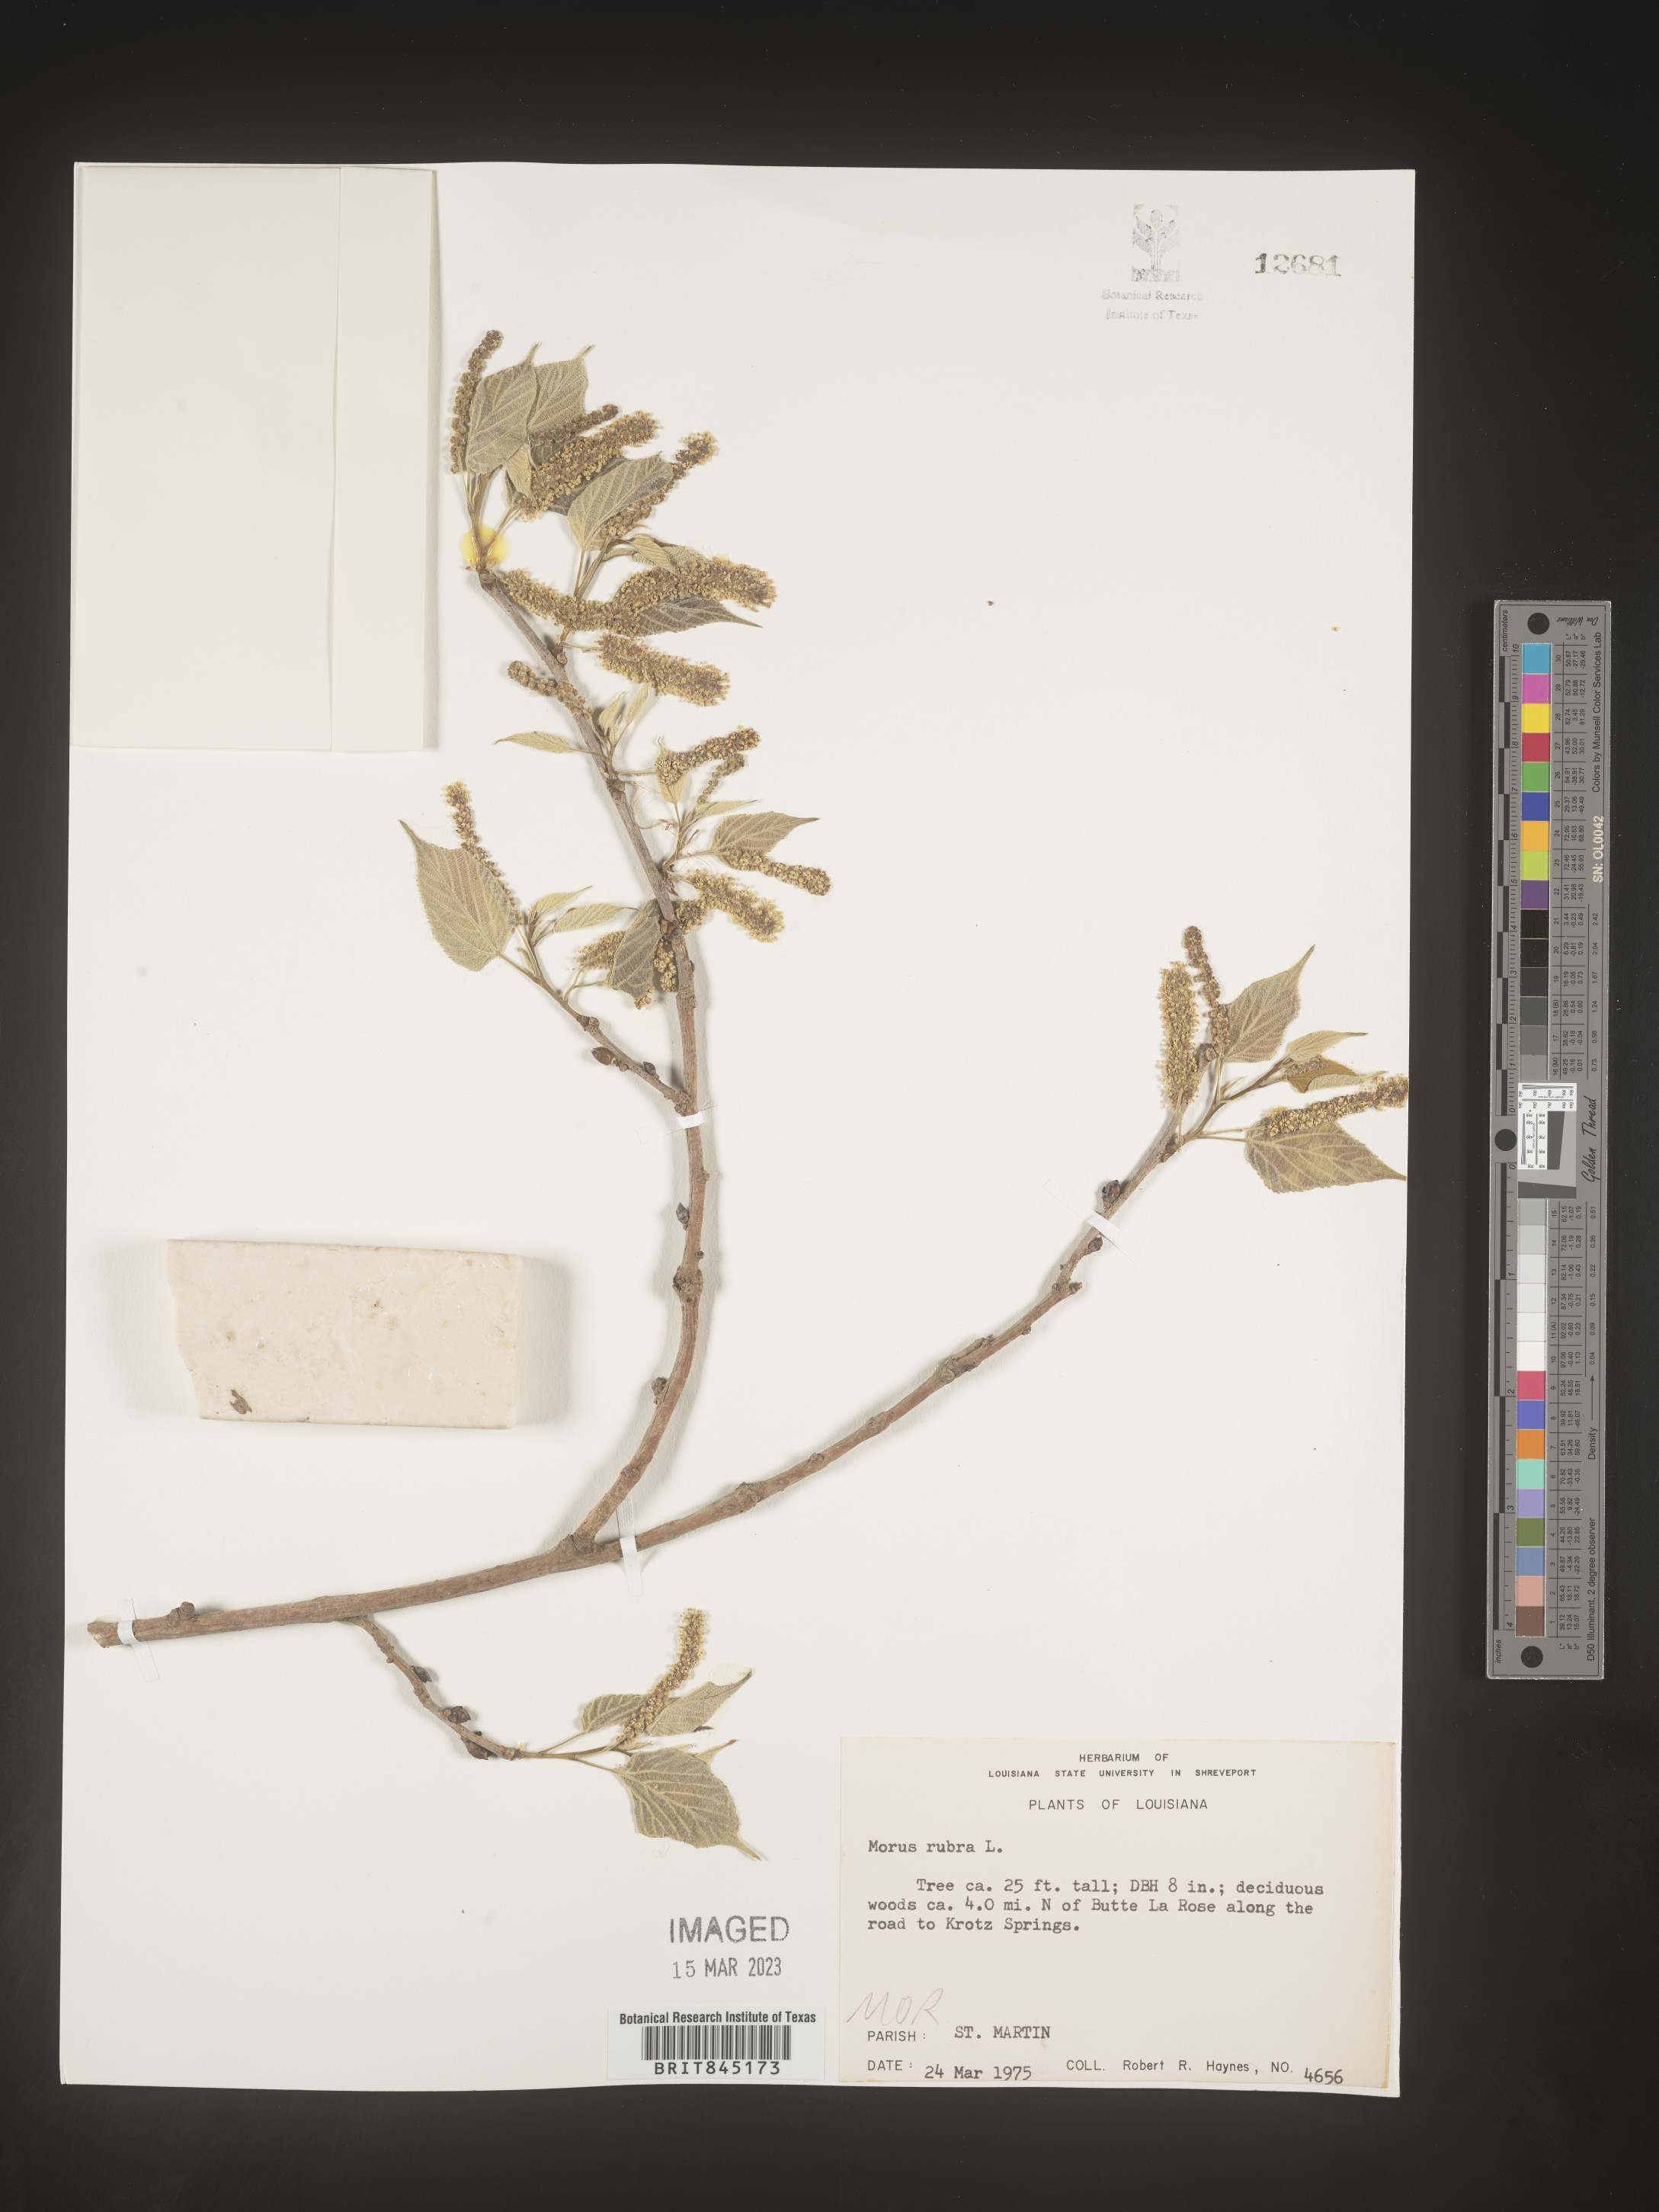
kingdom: Plantae
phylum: Tracheophyta
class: Magnoliopsida
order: Rosales
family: Moraceae
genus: Morus
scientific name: Morus rubra
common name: Red mulberry
